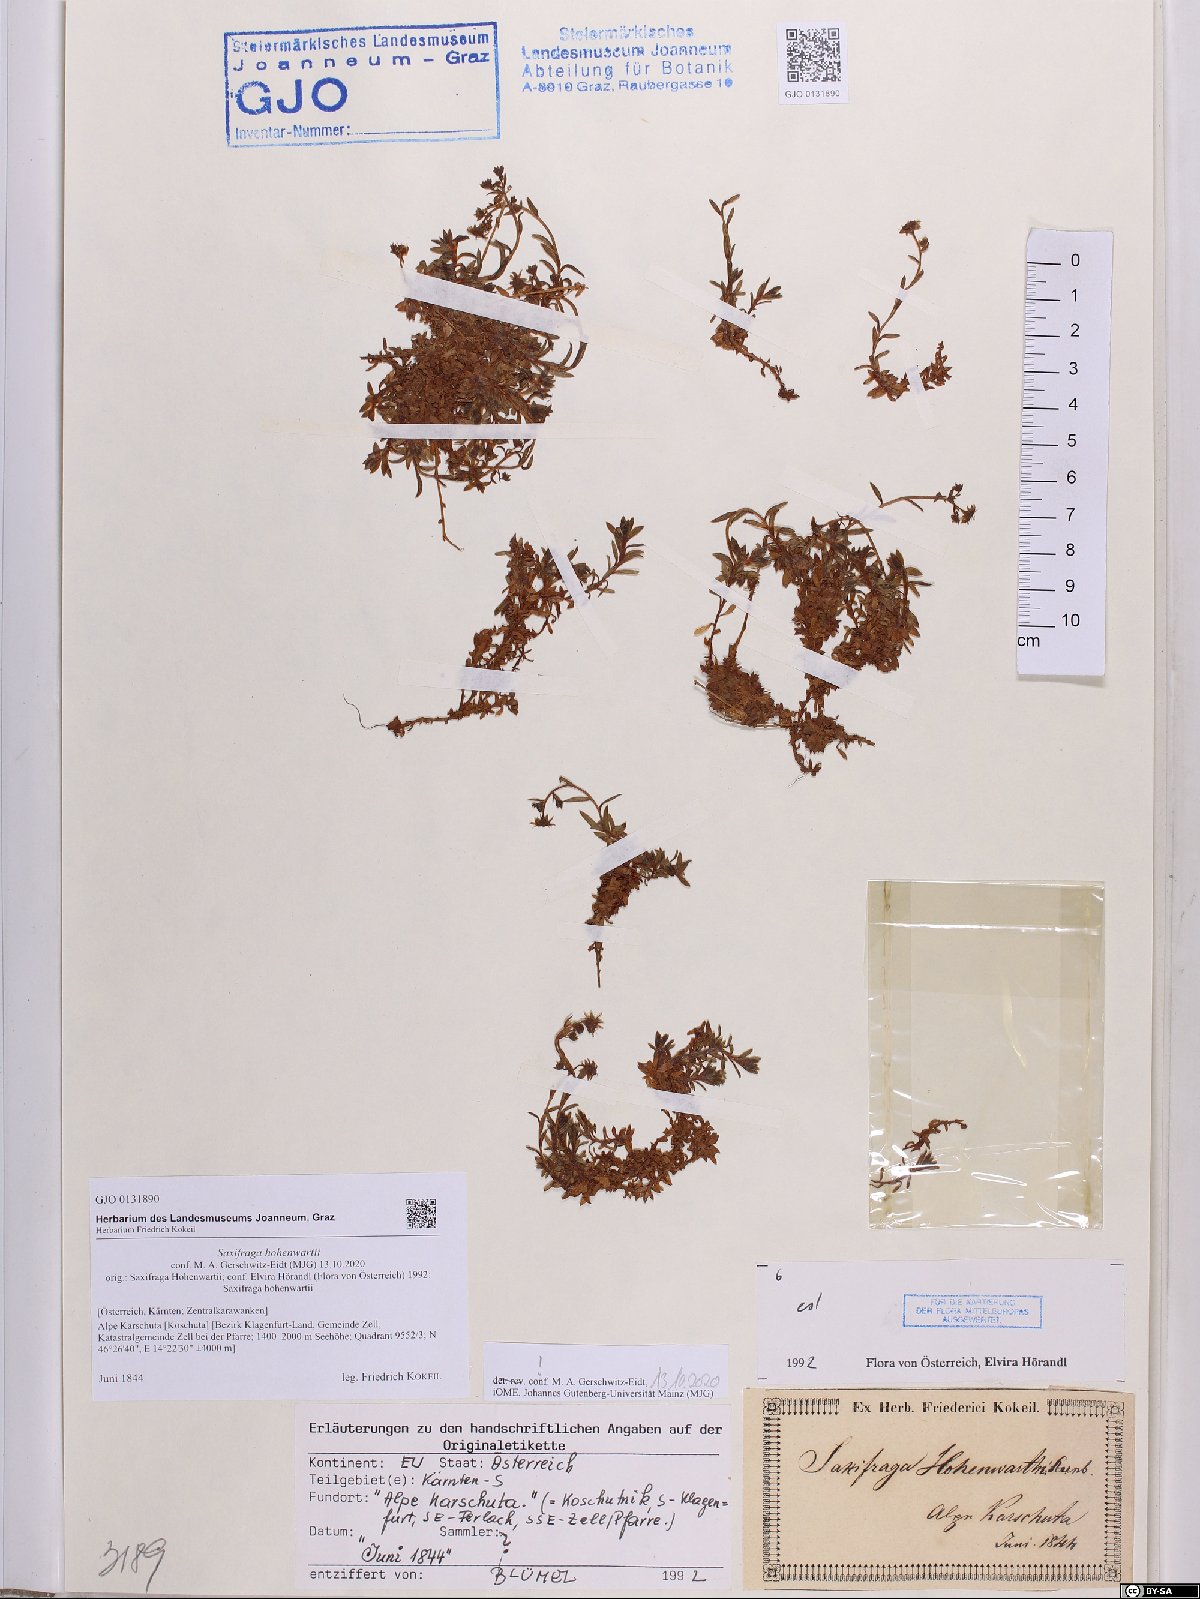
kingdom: Plantae
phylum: Tracheophyta
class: Magnoliopsida
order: Saxifragales
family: Saxifragaceae
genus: Saxifraga
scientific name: Saxifraga hohenwartii
